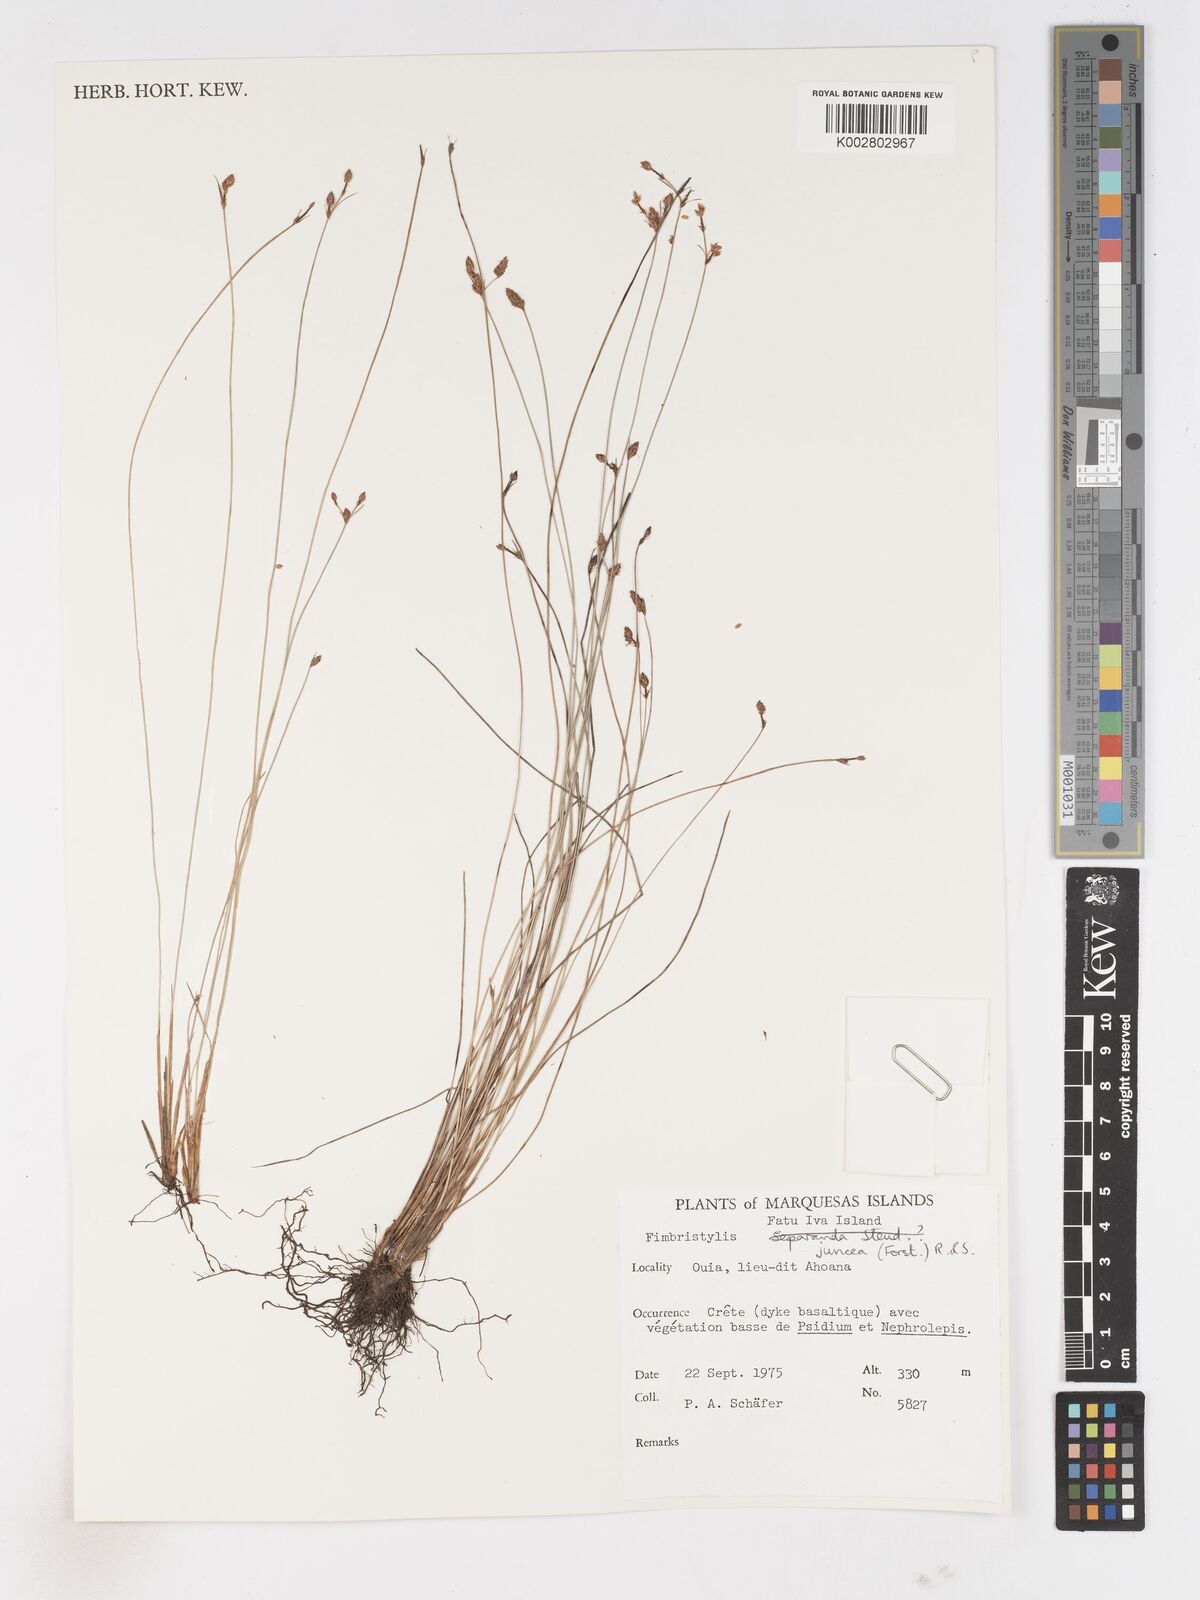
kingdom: Plantae
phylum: Tracheophyta
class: Liliopsida
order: Poales
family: Cyperaceae
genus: Fimbristylis
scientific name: Fimbristylis juncea
